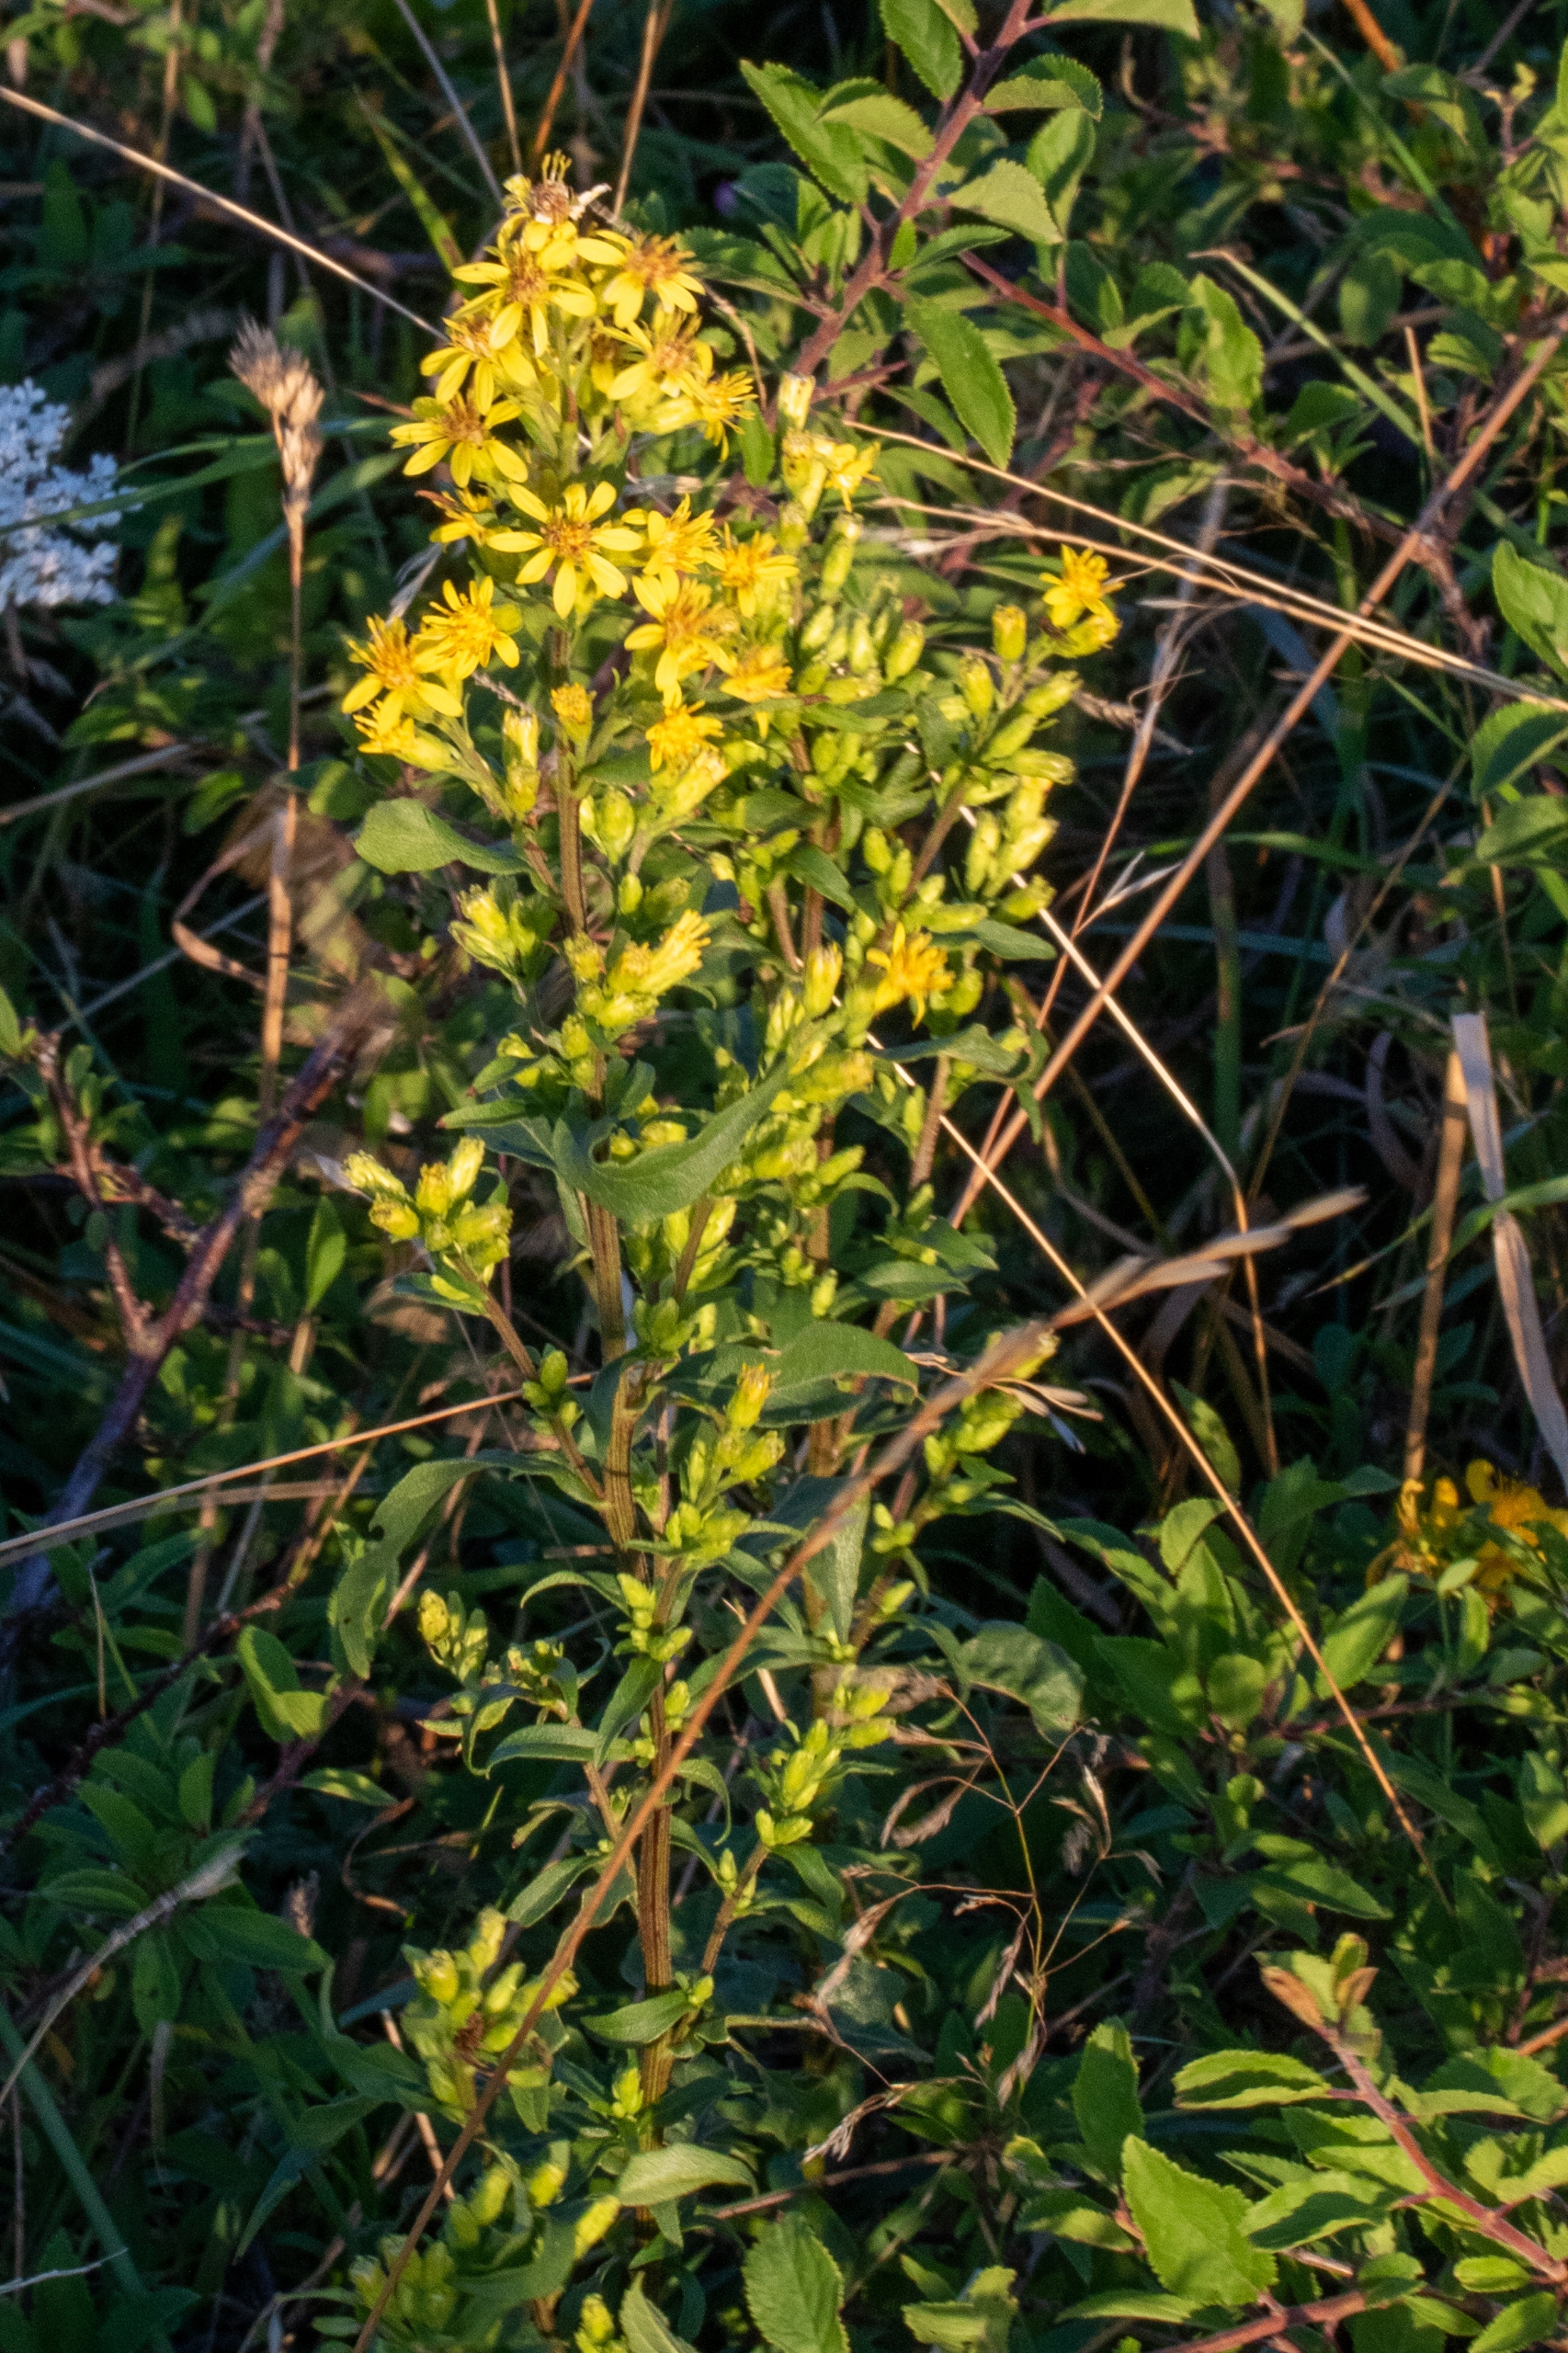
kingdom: Plantae
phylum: Tracheophyta
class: Magnoliopsida
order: Asterales
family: Asteraceae
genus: Solidago
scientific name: Solidago virgaurea
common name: Almindelig gyldenris
